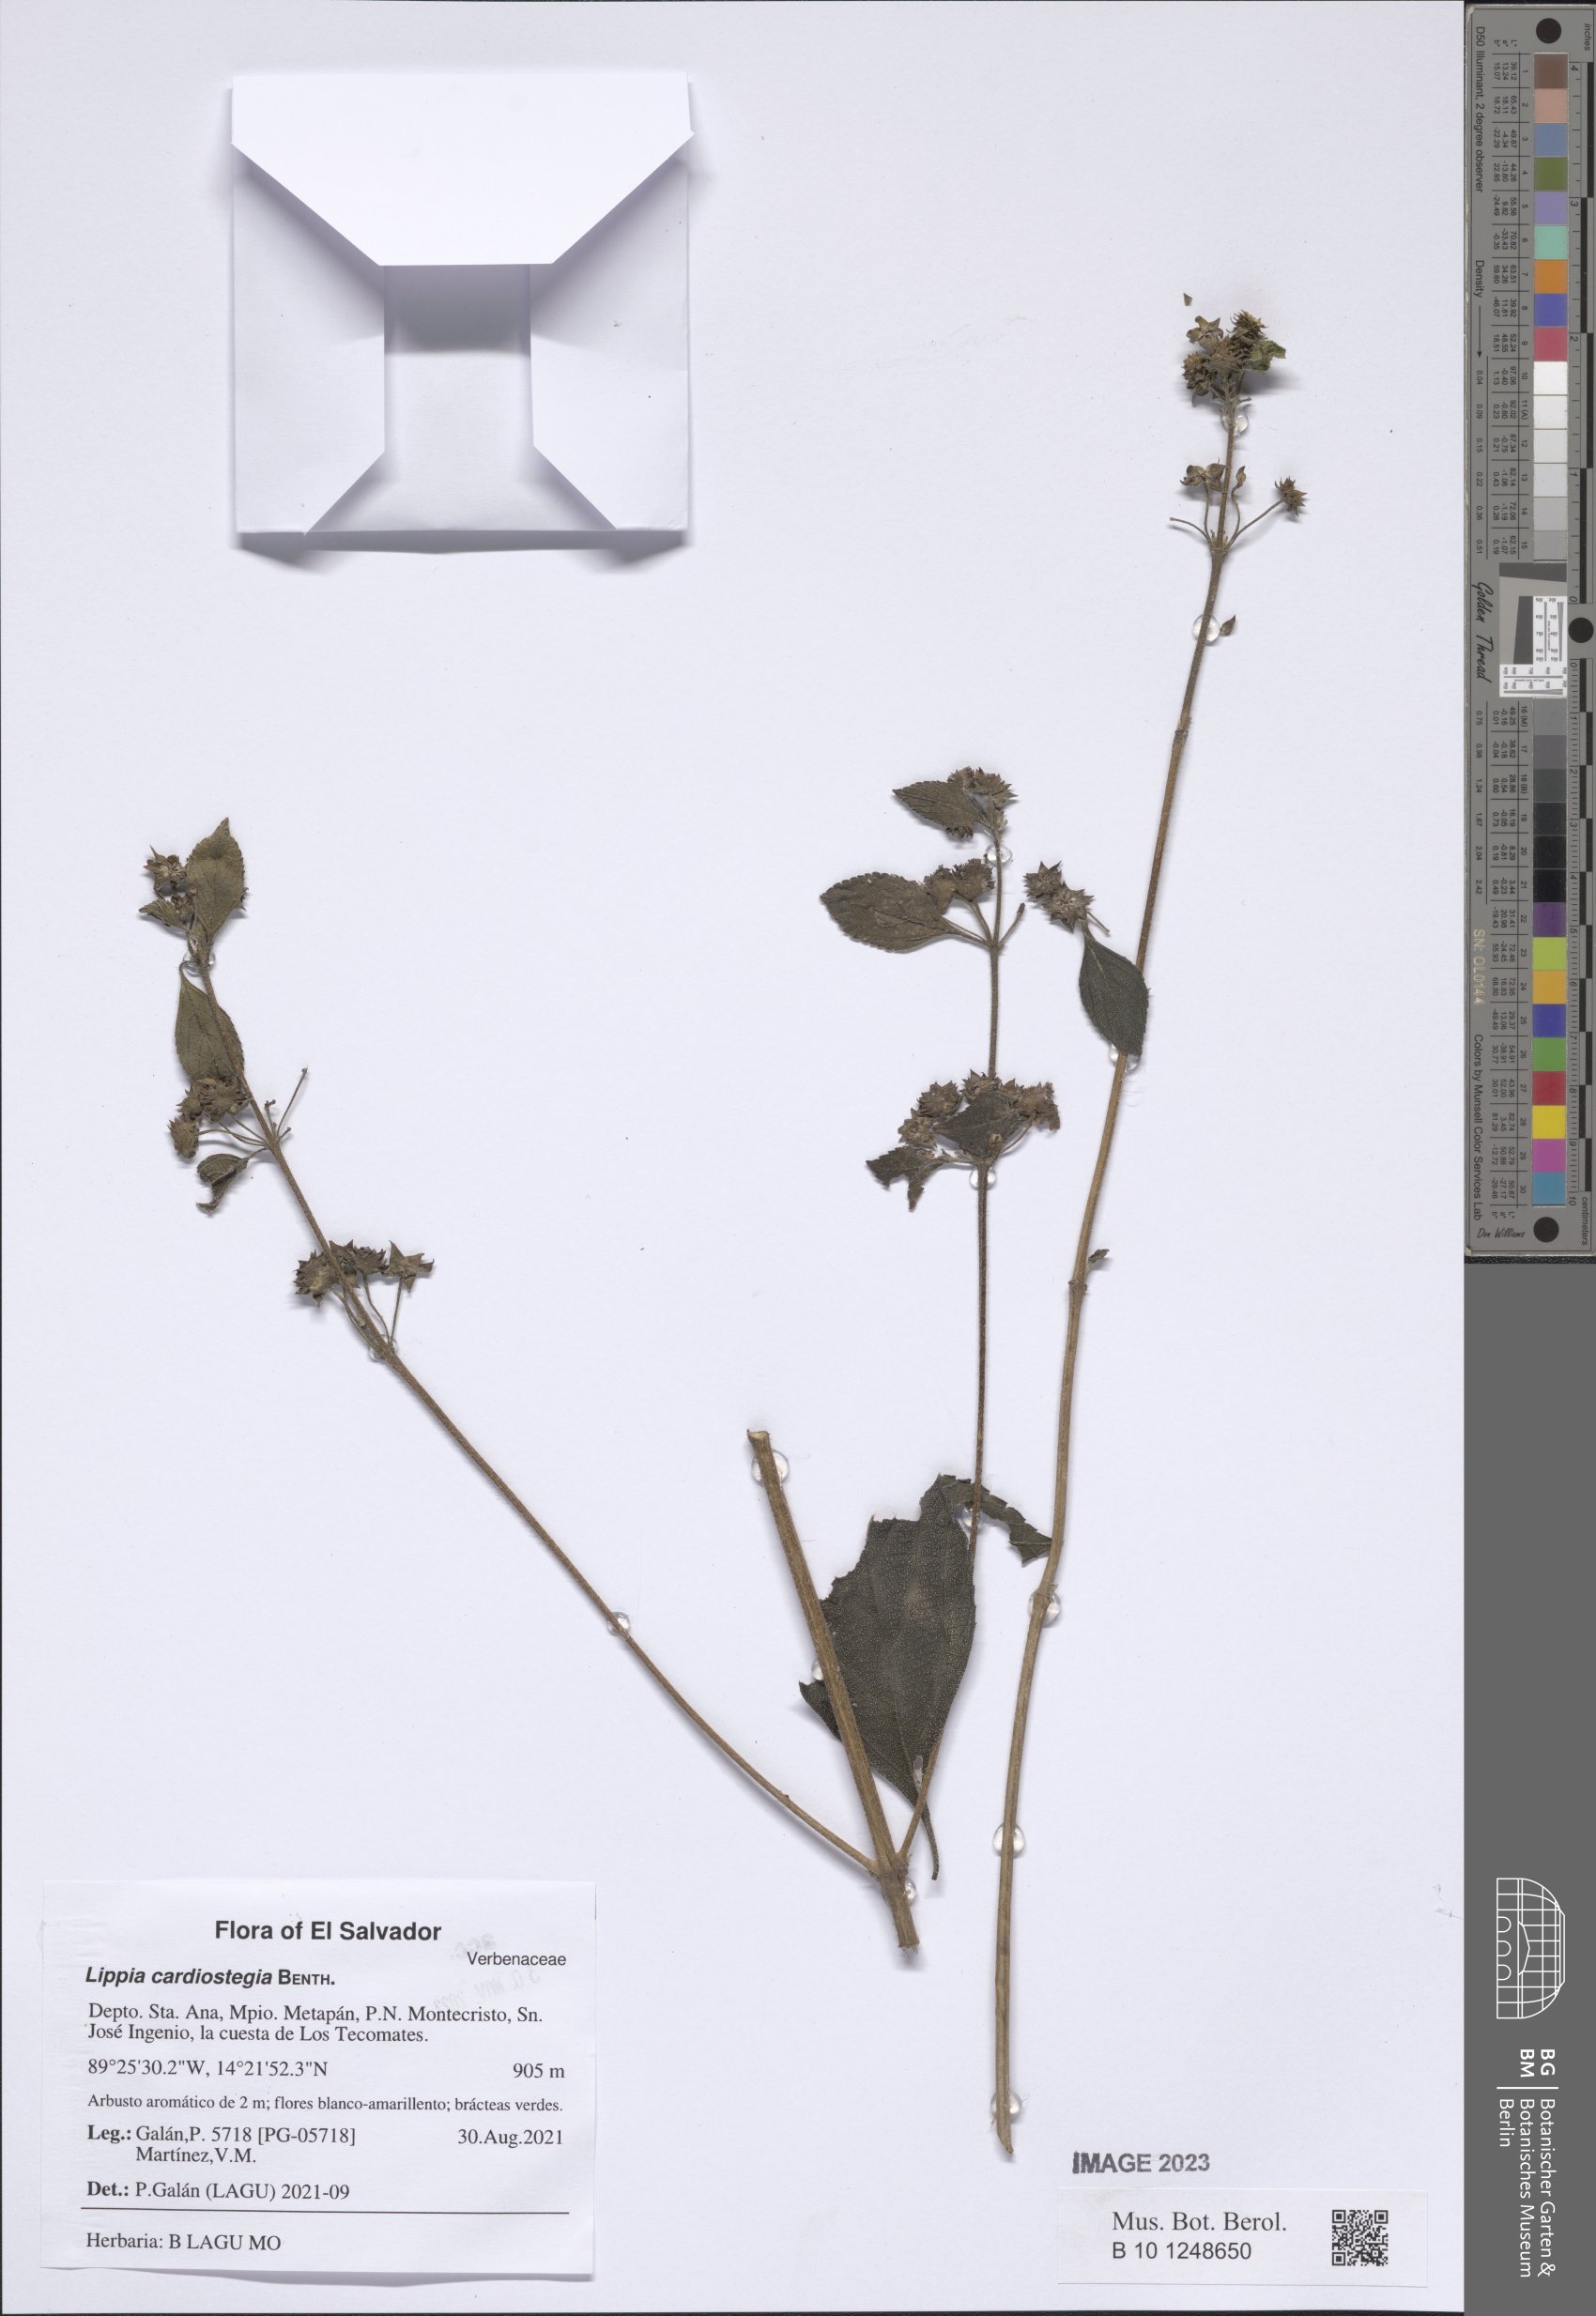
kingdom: Plantae
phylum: Tracheophyta
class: Magnoliopsida
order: Lamiales
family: Verbenaceae
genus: Lippia
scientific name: Lippia cardiostegia
